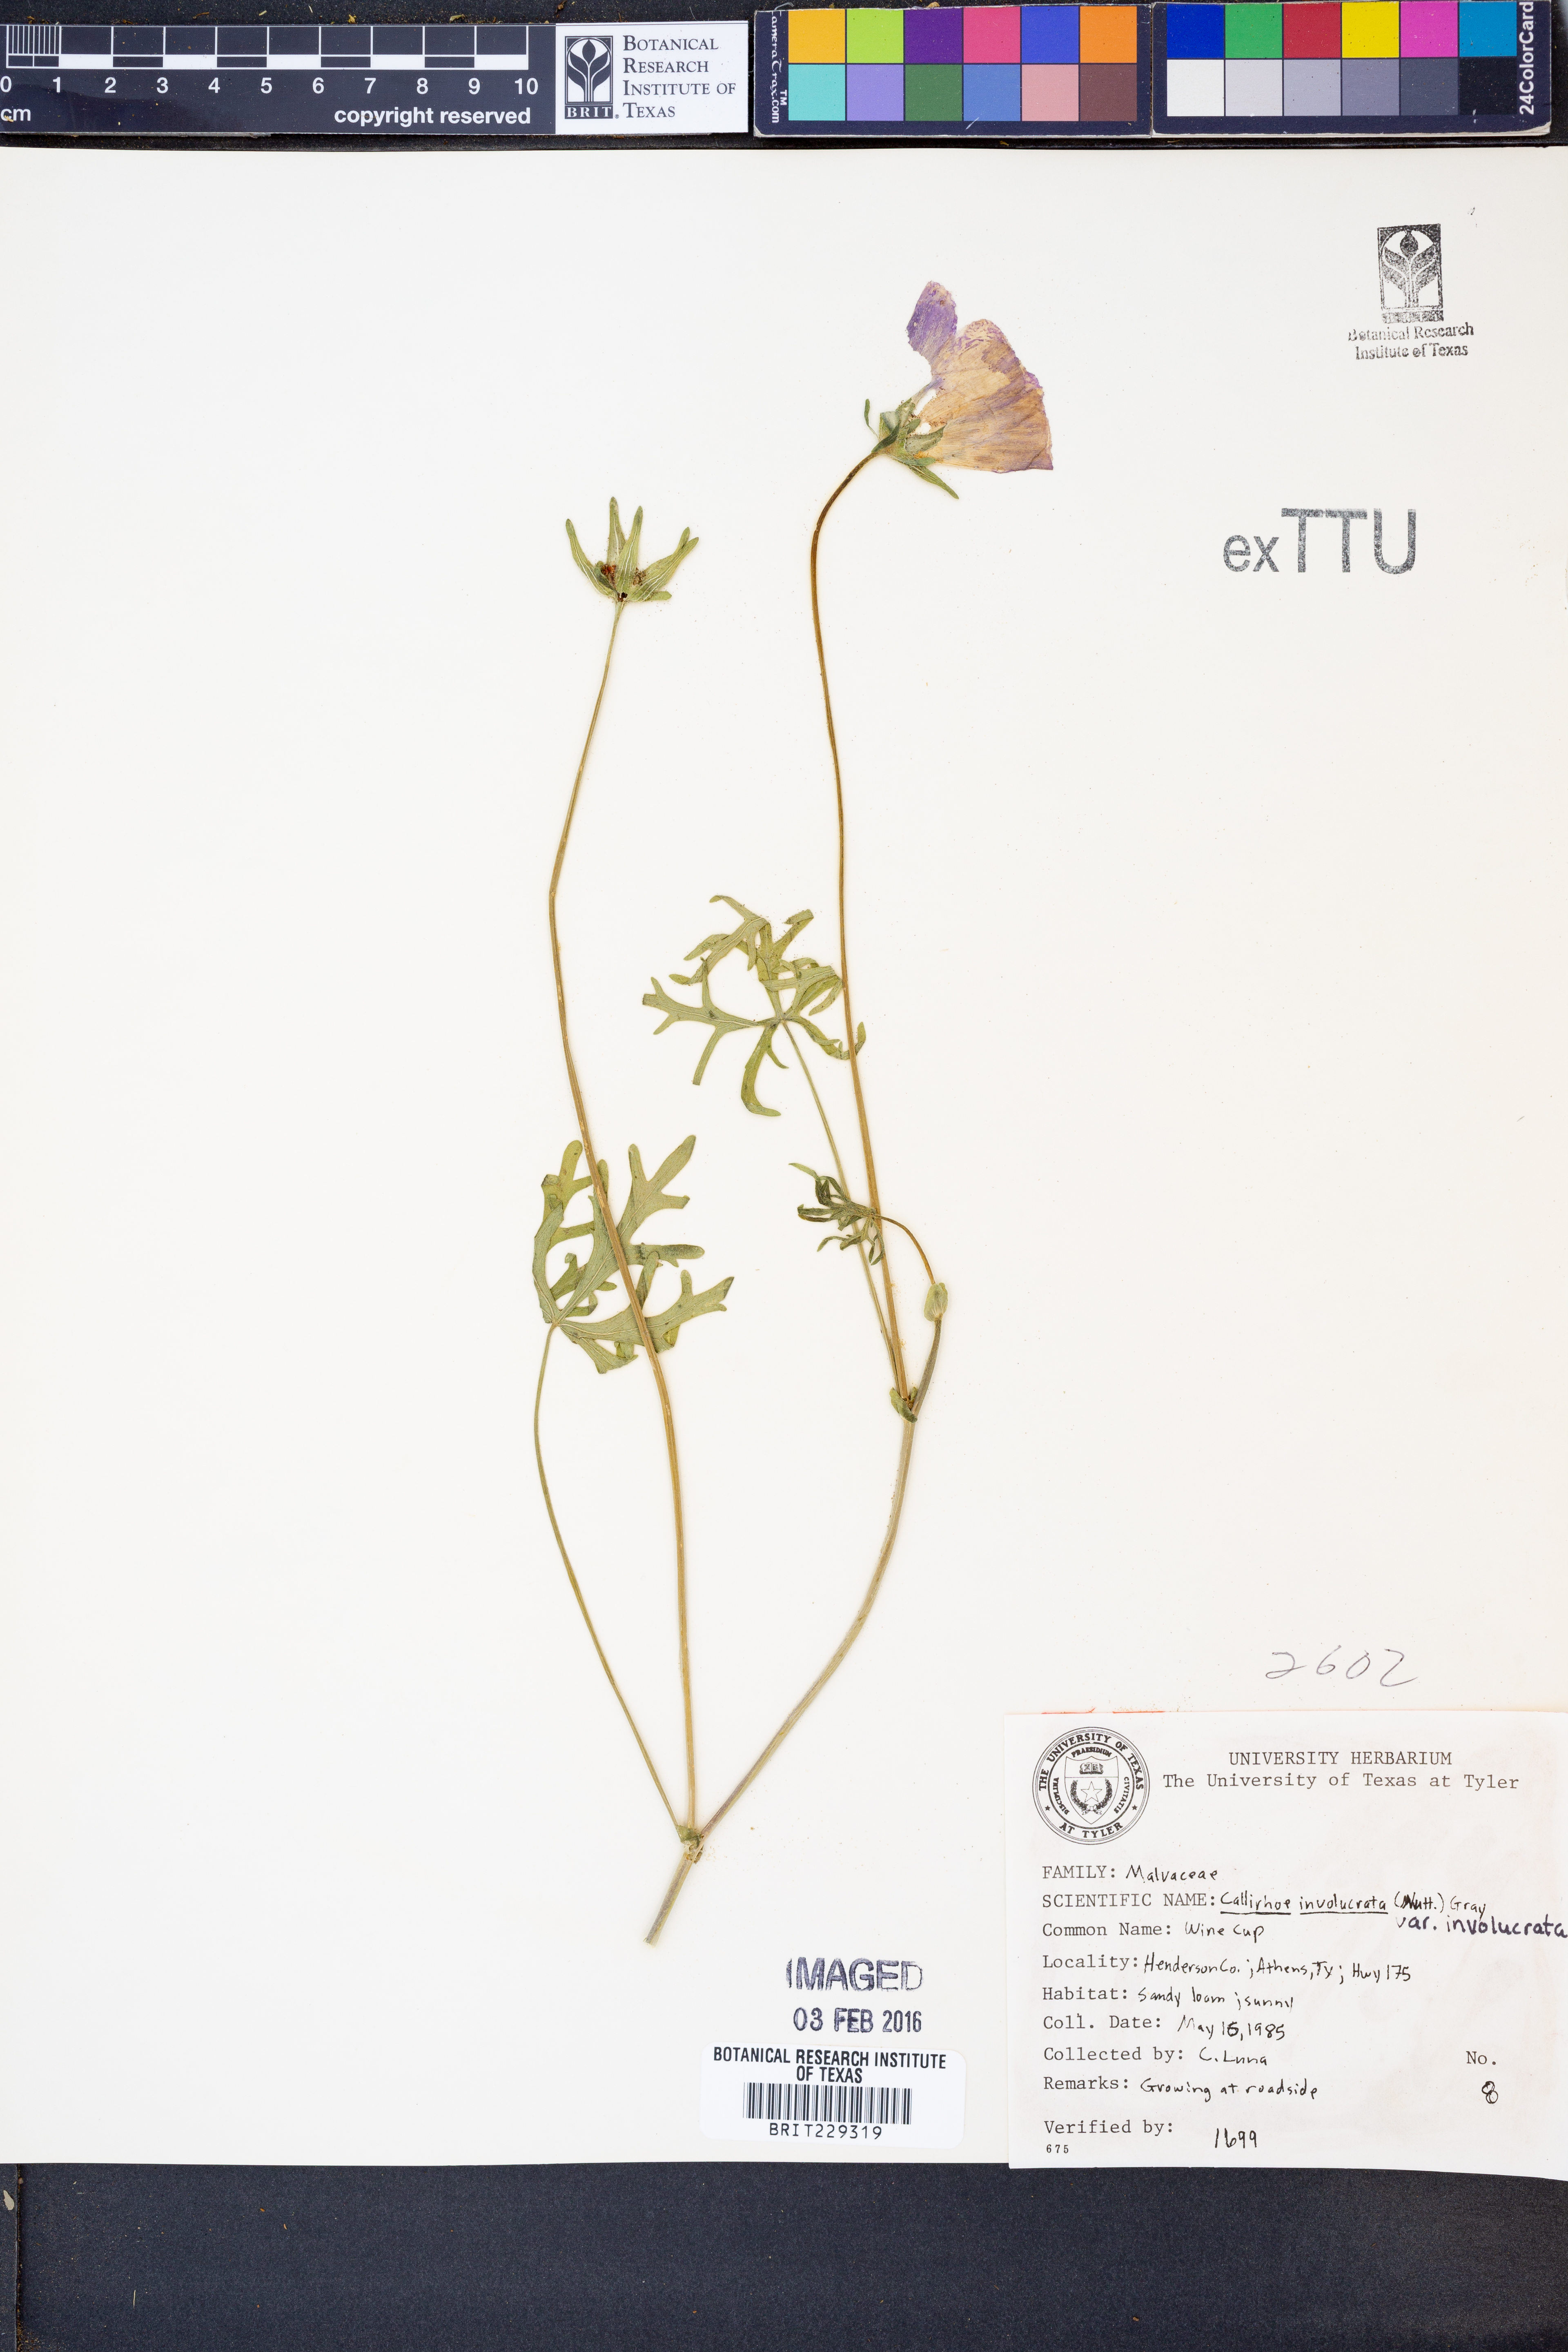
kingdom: Plantae
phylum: Tracheophyta
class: Magnoliopsida
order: Malvales
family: Malvaceae
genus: Callirhoe
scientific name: Callirhoe involucrata
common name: Purple poppy-mallow
